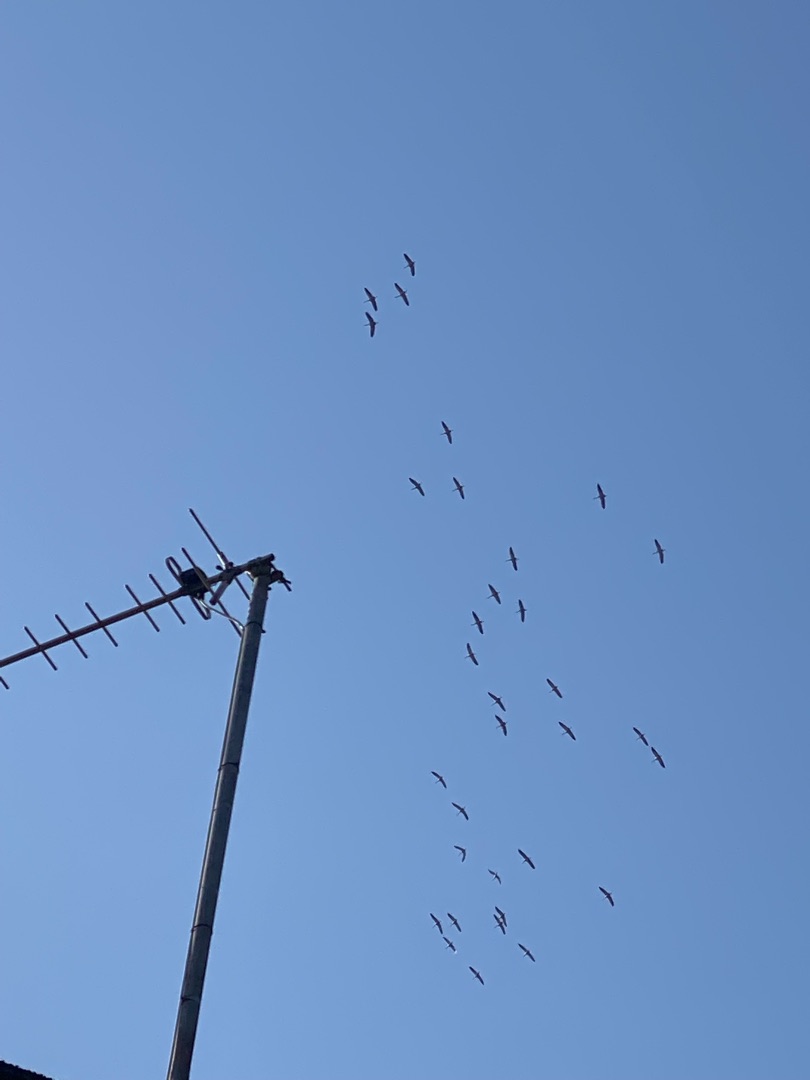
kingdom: Animalia
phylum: Chordata
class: Aves
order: Gruiformes
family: Gruidae
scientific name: Gruidae
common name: Traner
